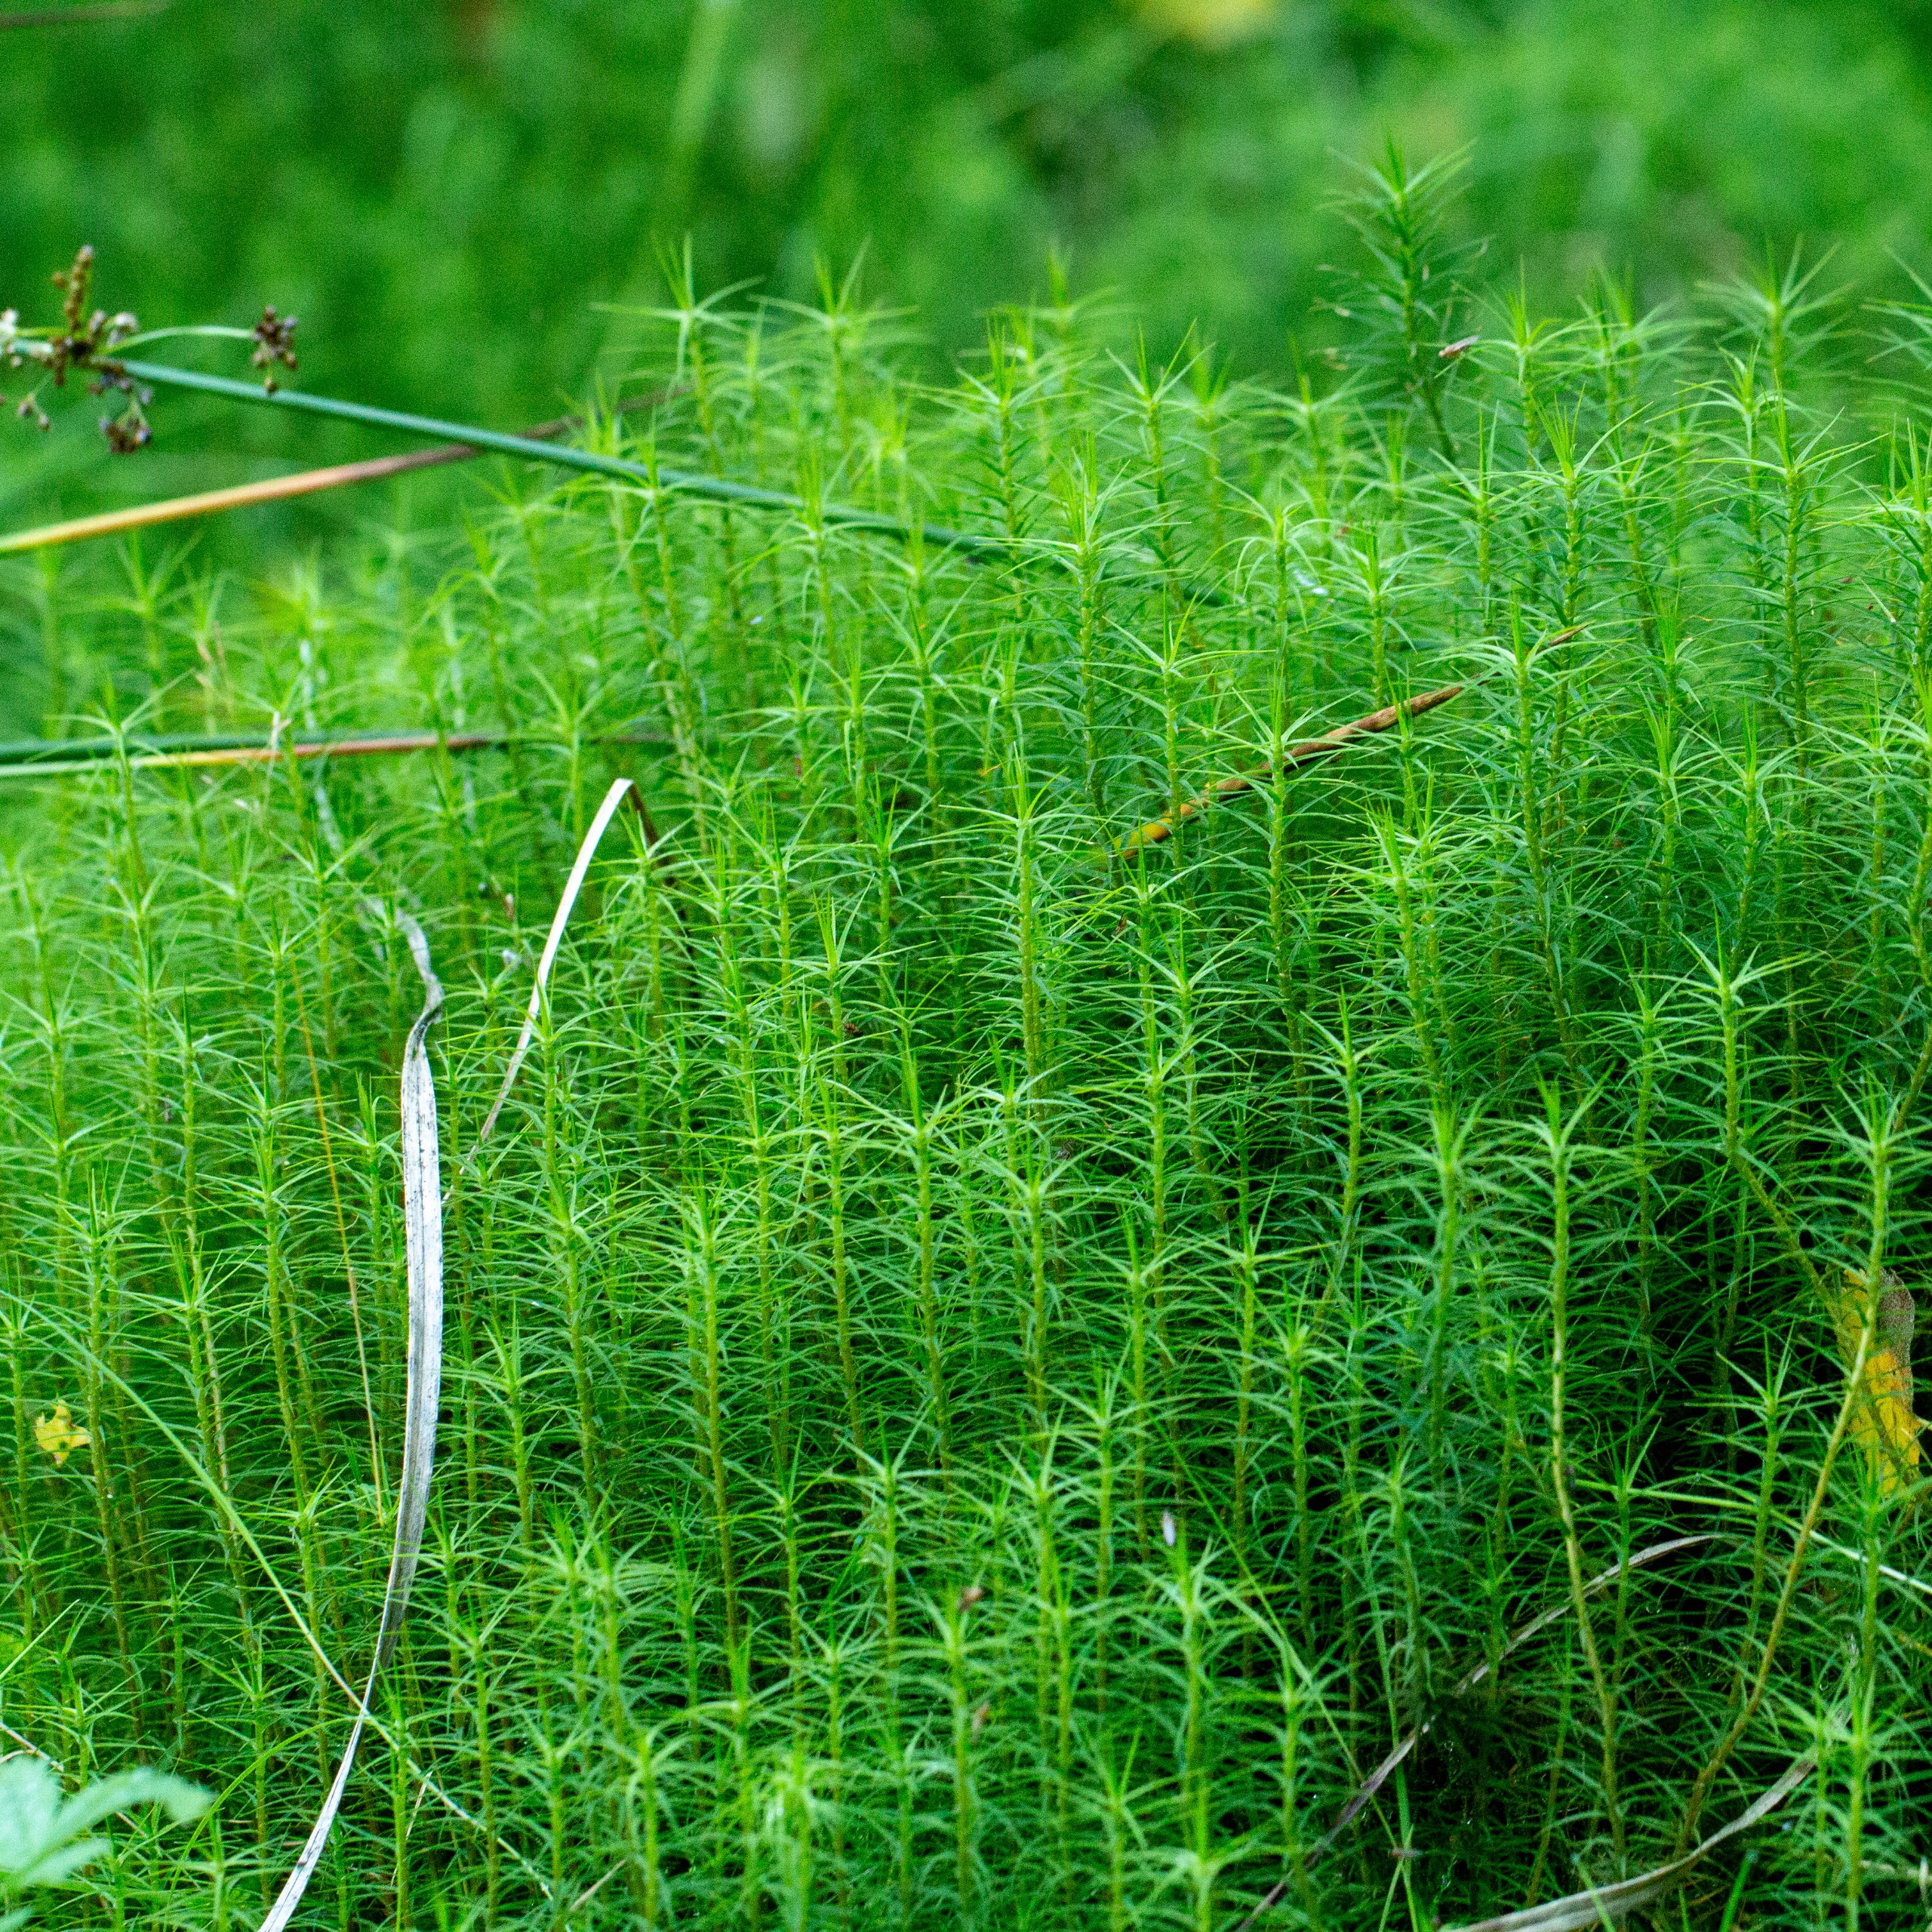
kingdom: Plantae
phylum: Bryophyta
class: Polytrichopsida
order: Polytrichales
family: Polytrichaceae
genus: Polytrichum
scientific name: Polytrichum commune
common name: Almindelig jomfruhår
